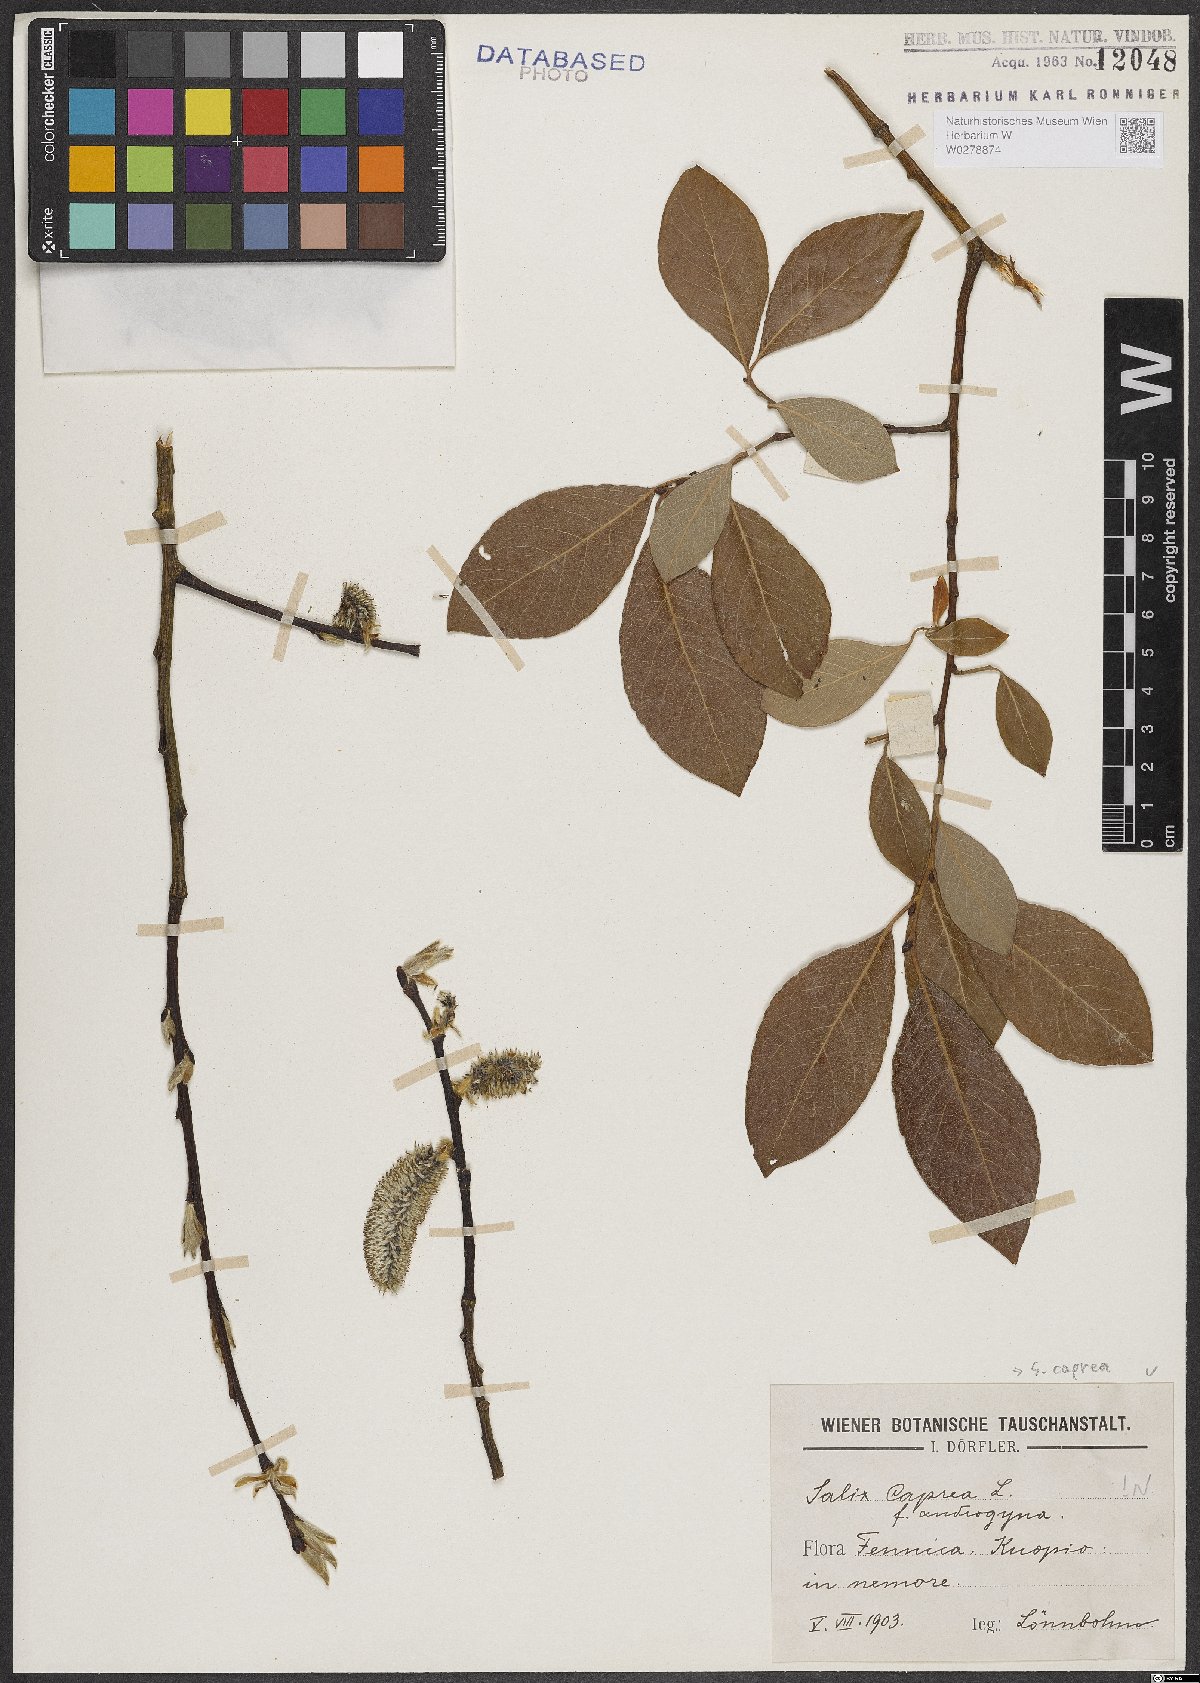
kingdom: Plantae
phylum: Tracheophyta
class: Magnoliopsida
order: Malpighiales
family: Salicaceae
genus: Salix
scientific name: Salix caprea
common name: Goat willow
